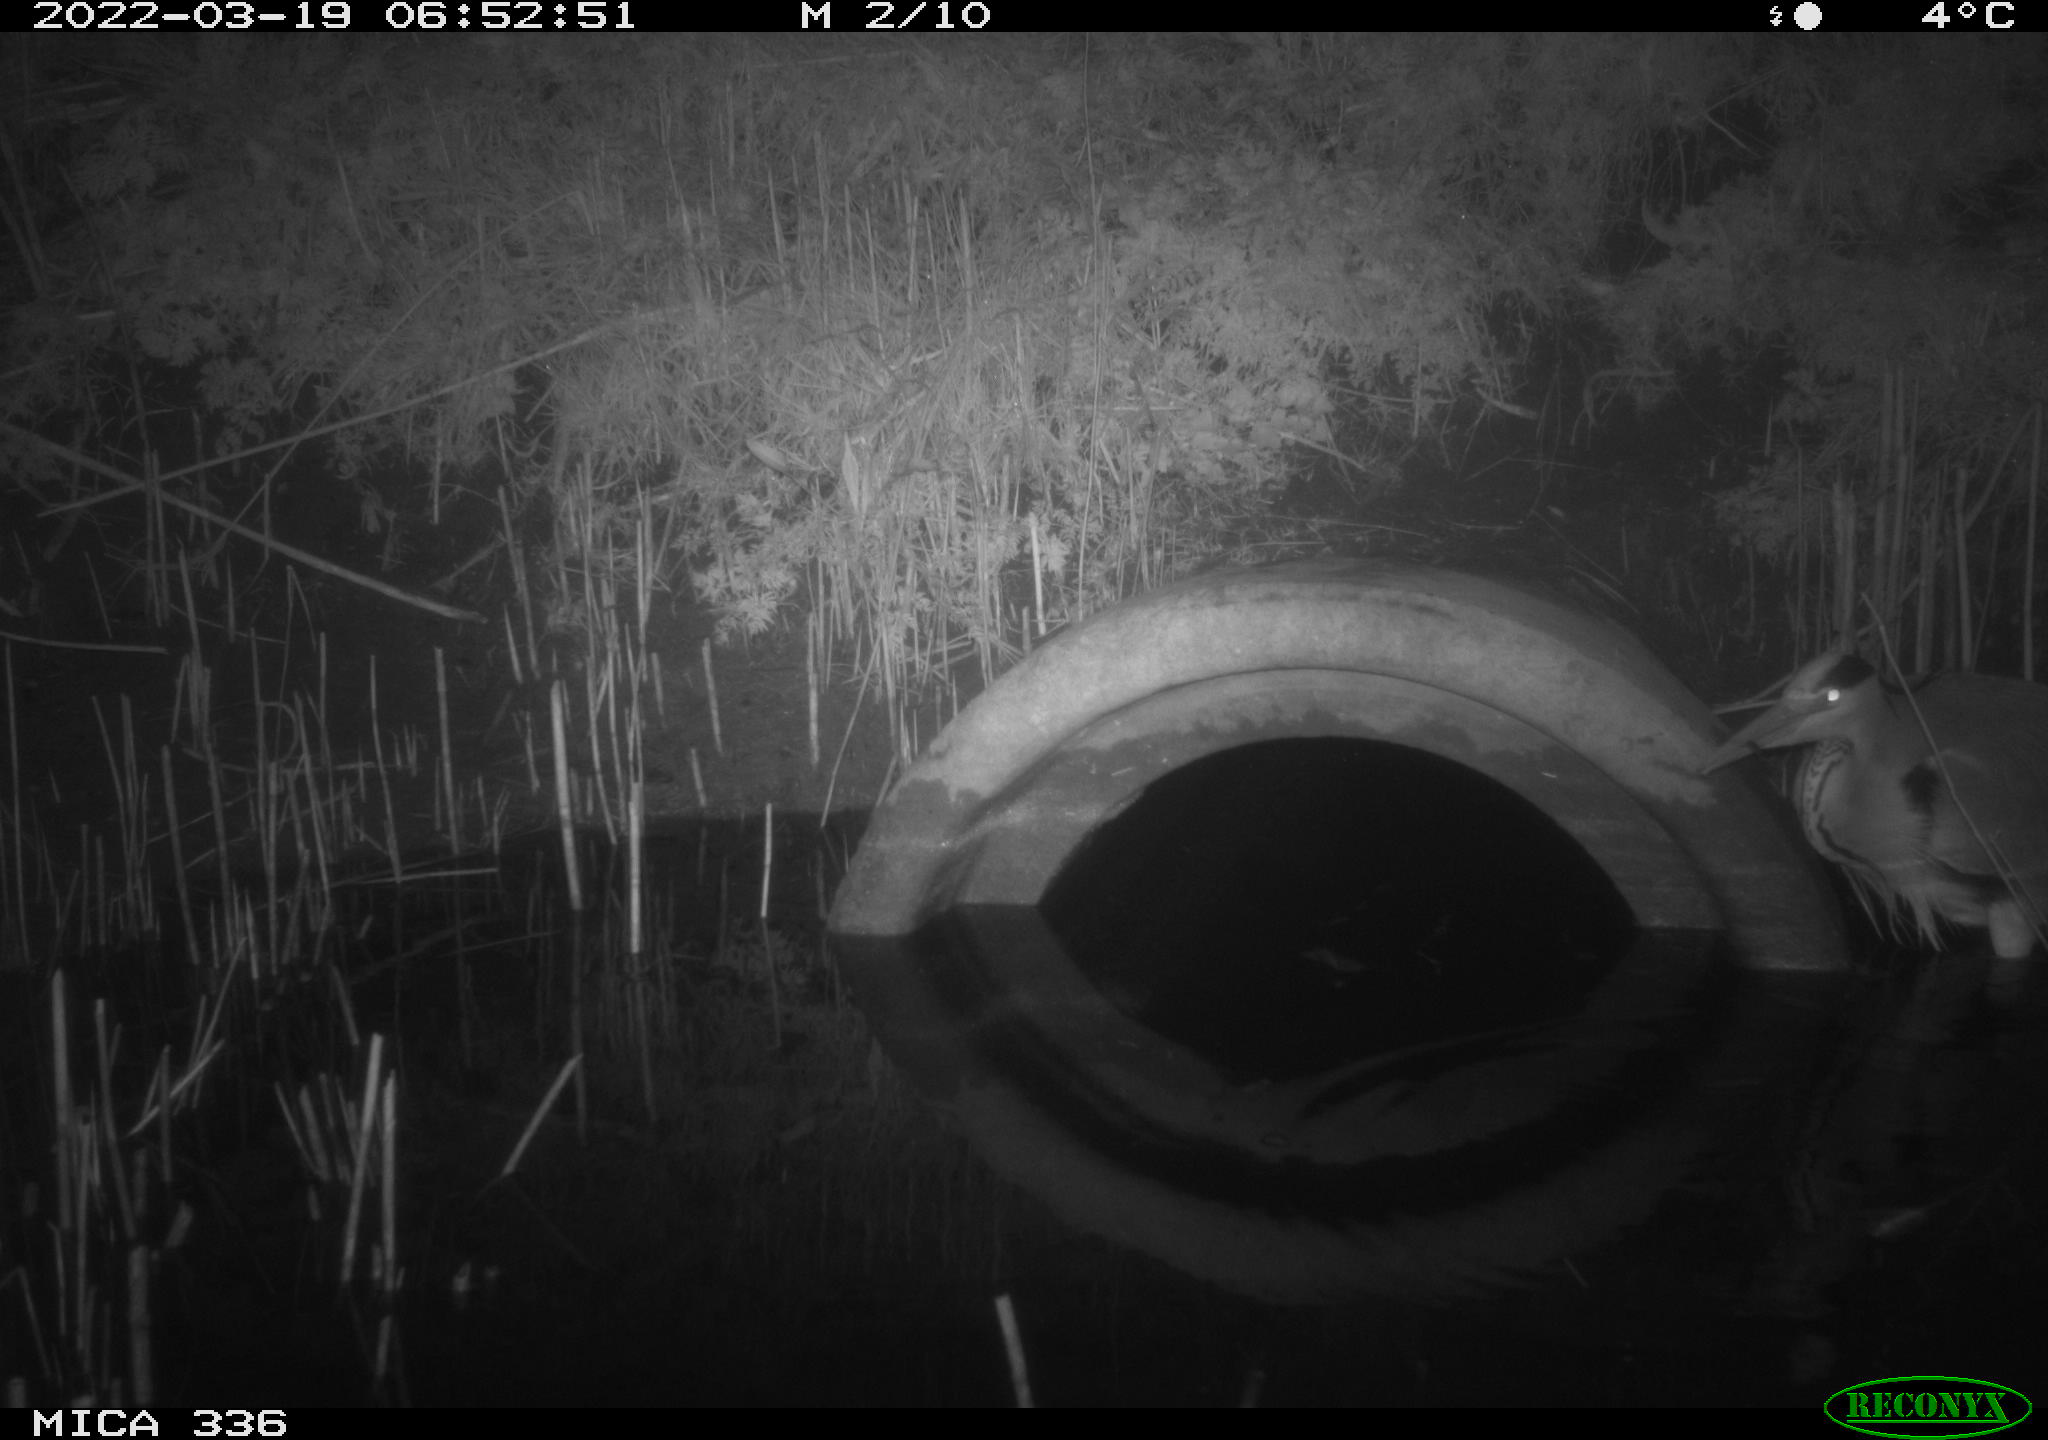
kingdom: Animalia
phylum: Chordata
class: Aves
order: Pelecaniformes
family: Ardeidae
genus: Ardea
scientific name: Ardea cinerea
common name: Grey heron
